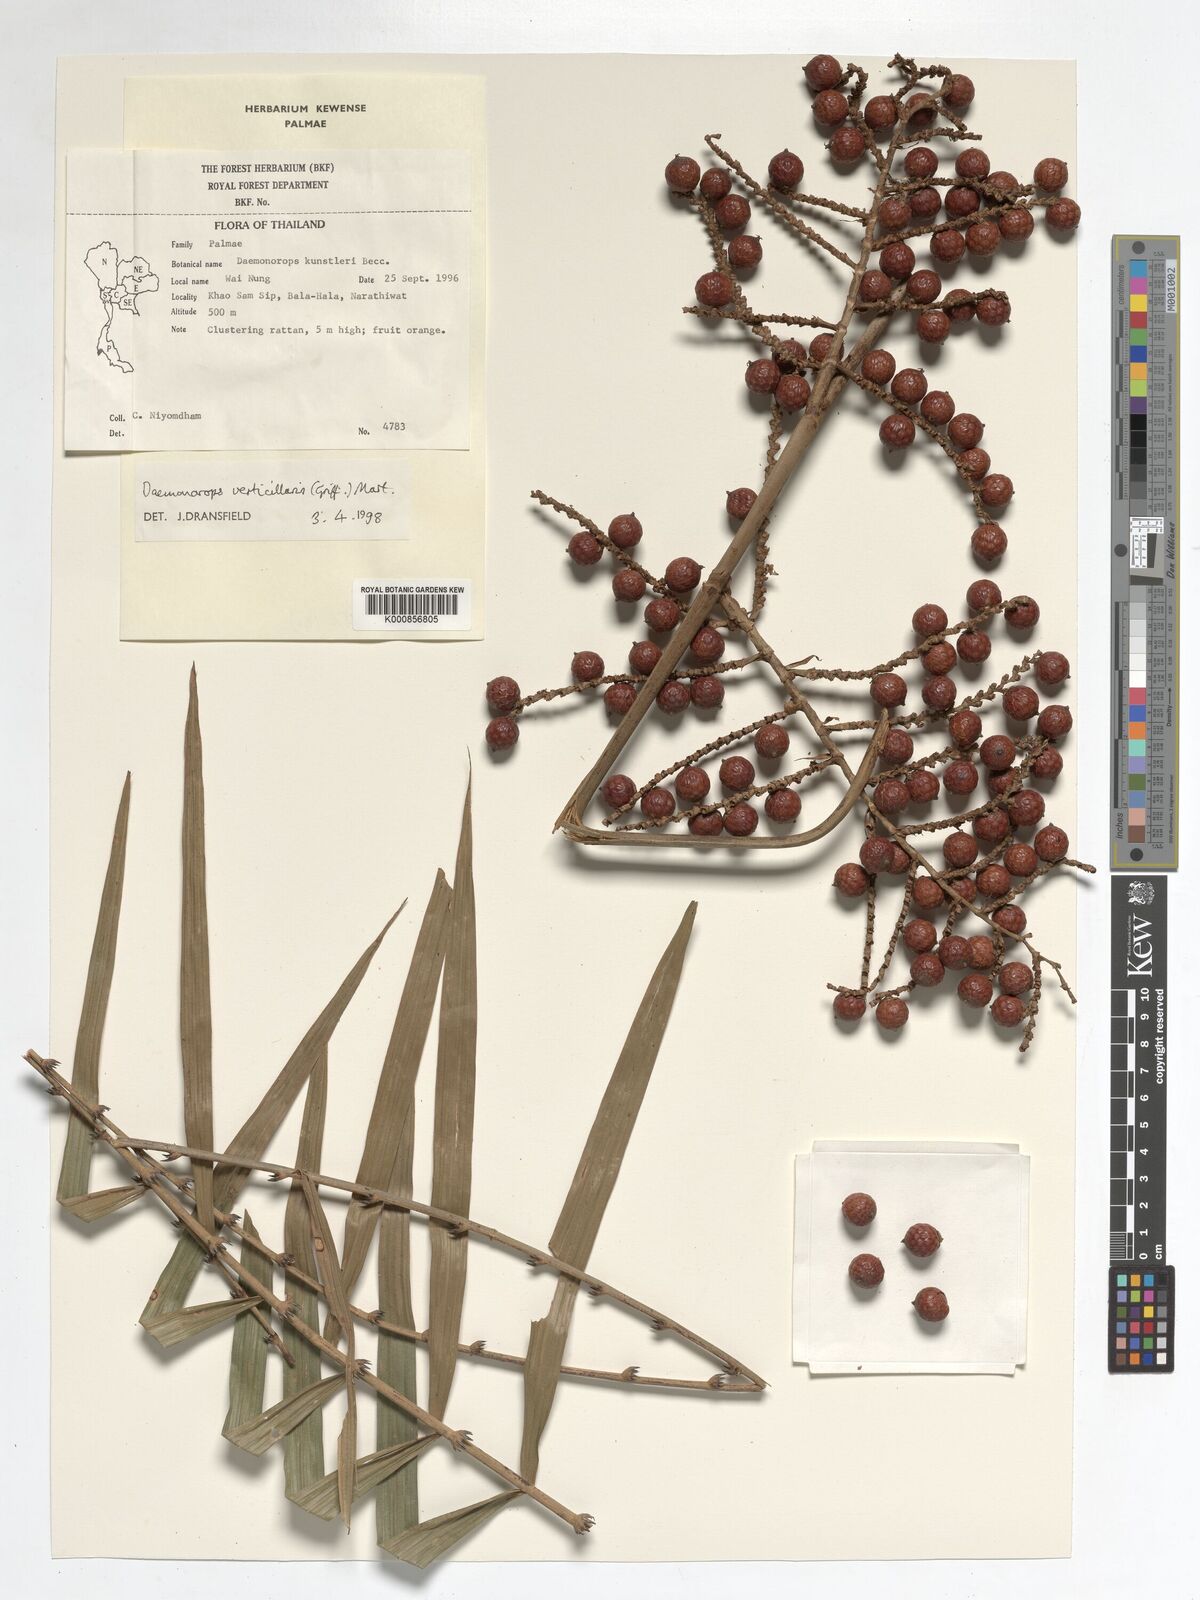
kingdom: Plantae
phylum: Tracheophyta
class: Liliopsida
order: Arecales
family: Arecaceae
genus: Calamus
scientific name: Calamus verticillaris
